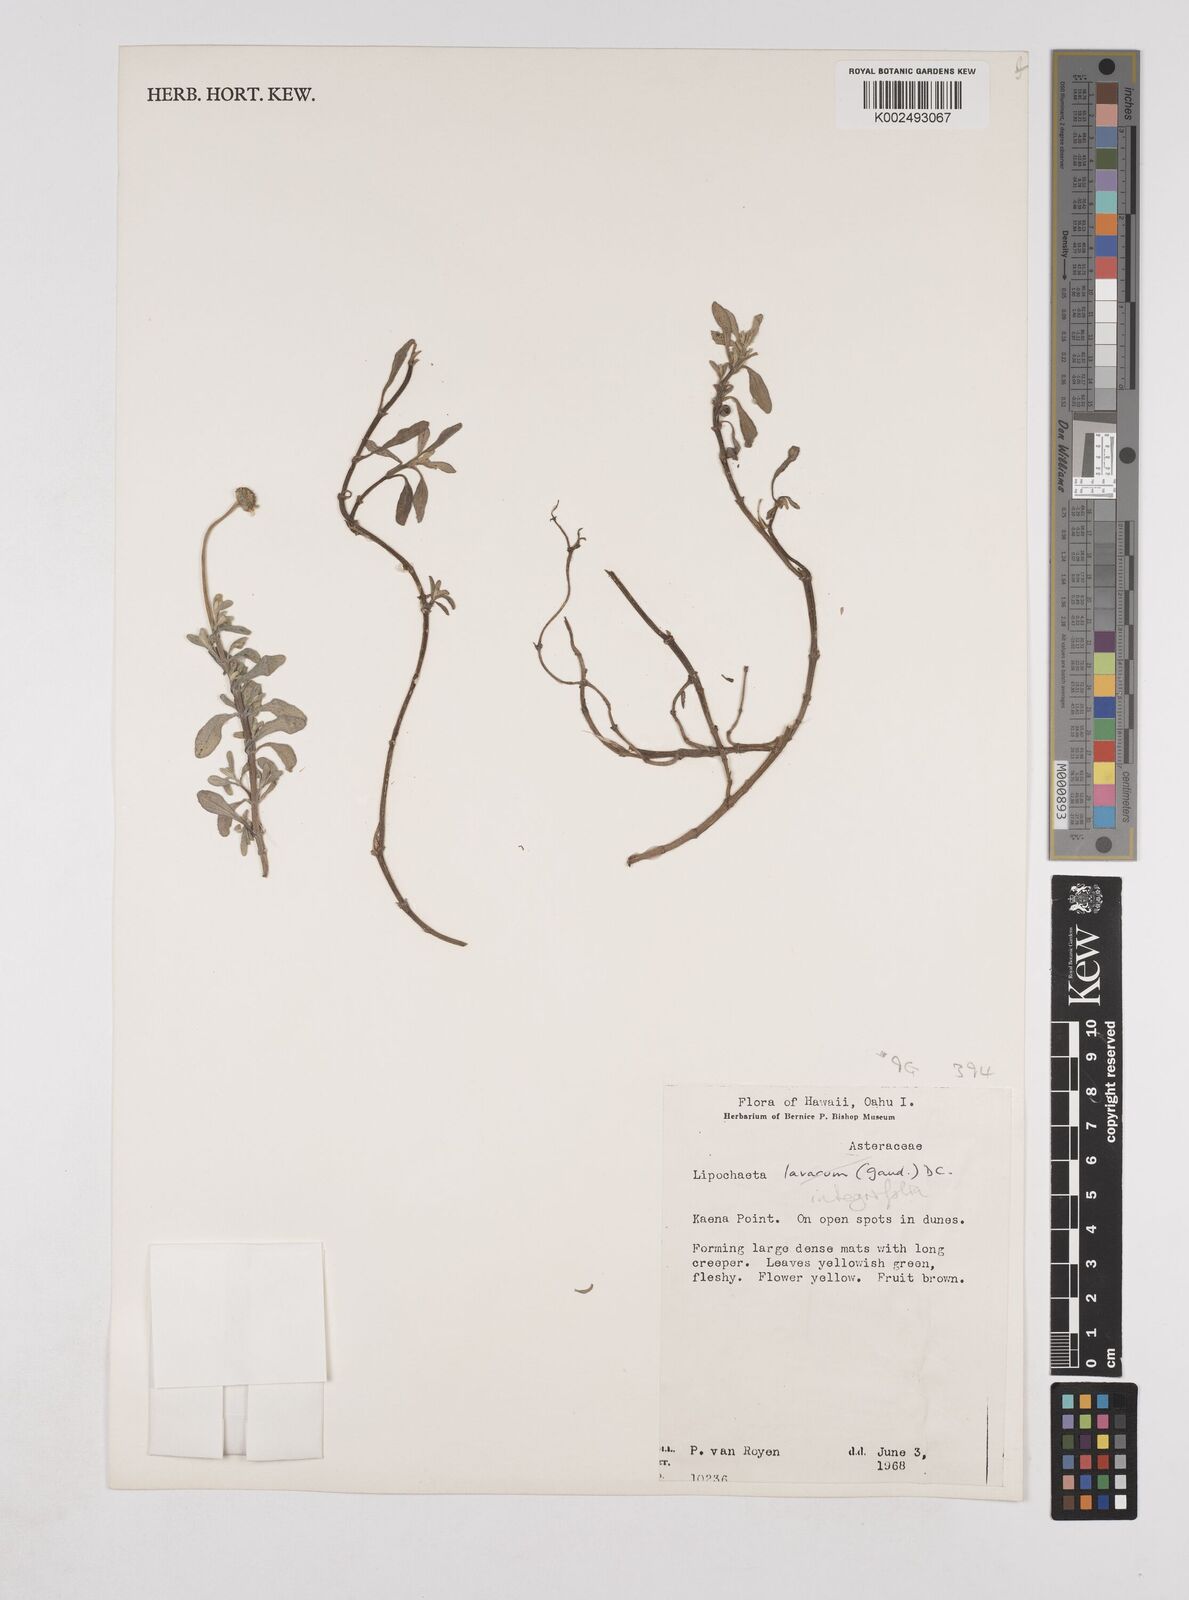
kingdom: Plantae
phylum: Tracheophyta
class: Magnoliopsida
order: Asterales
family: Asteraceae
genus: Lipochaeta
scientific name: Lipochaeta integrifolia
